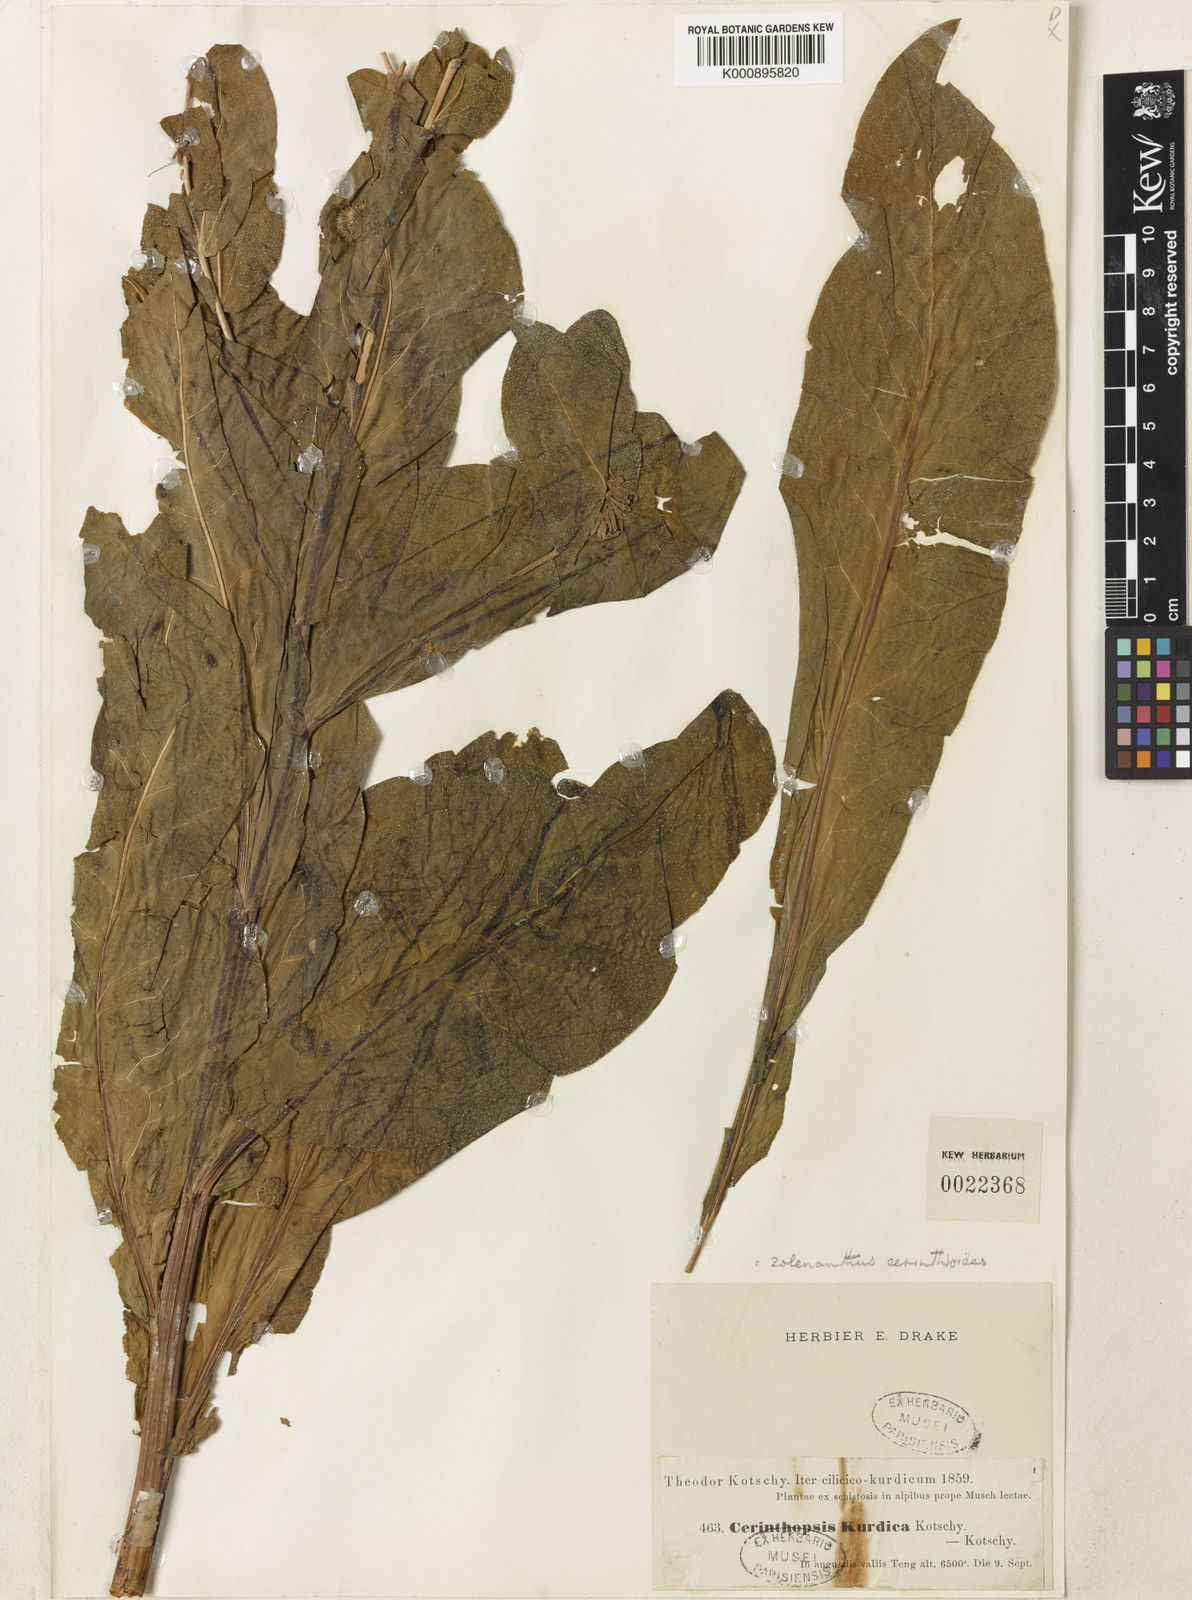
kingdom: Plantae
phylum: Tracheophyta
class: Magnoliopsida
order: Boraginales
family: Boraginaceae
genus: Trachelanthus
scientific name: Trachelanthus
